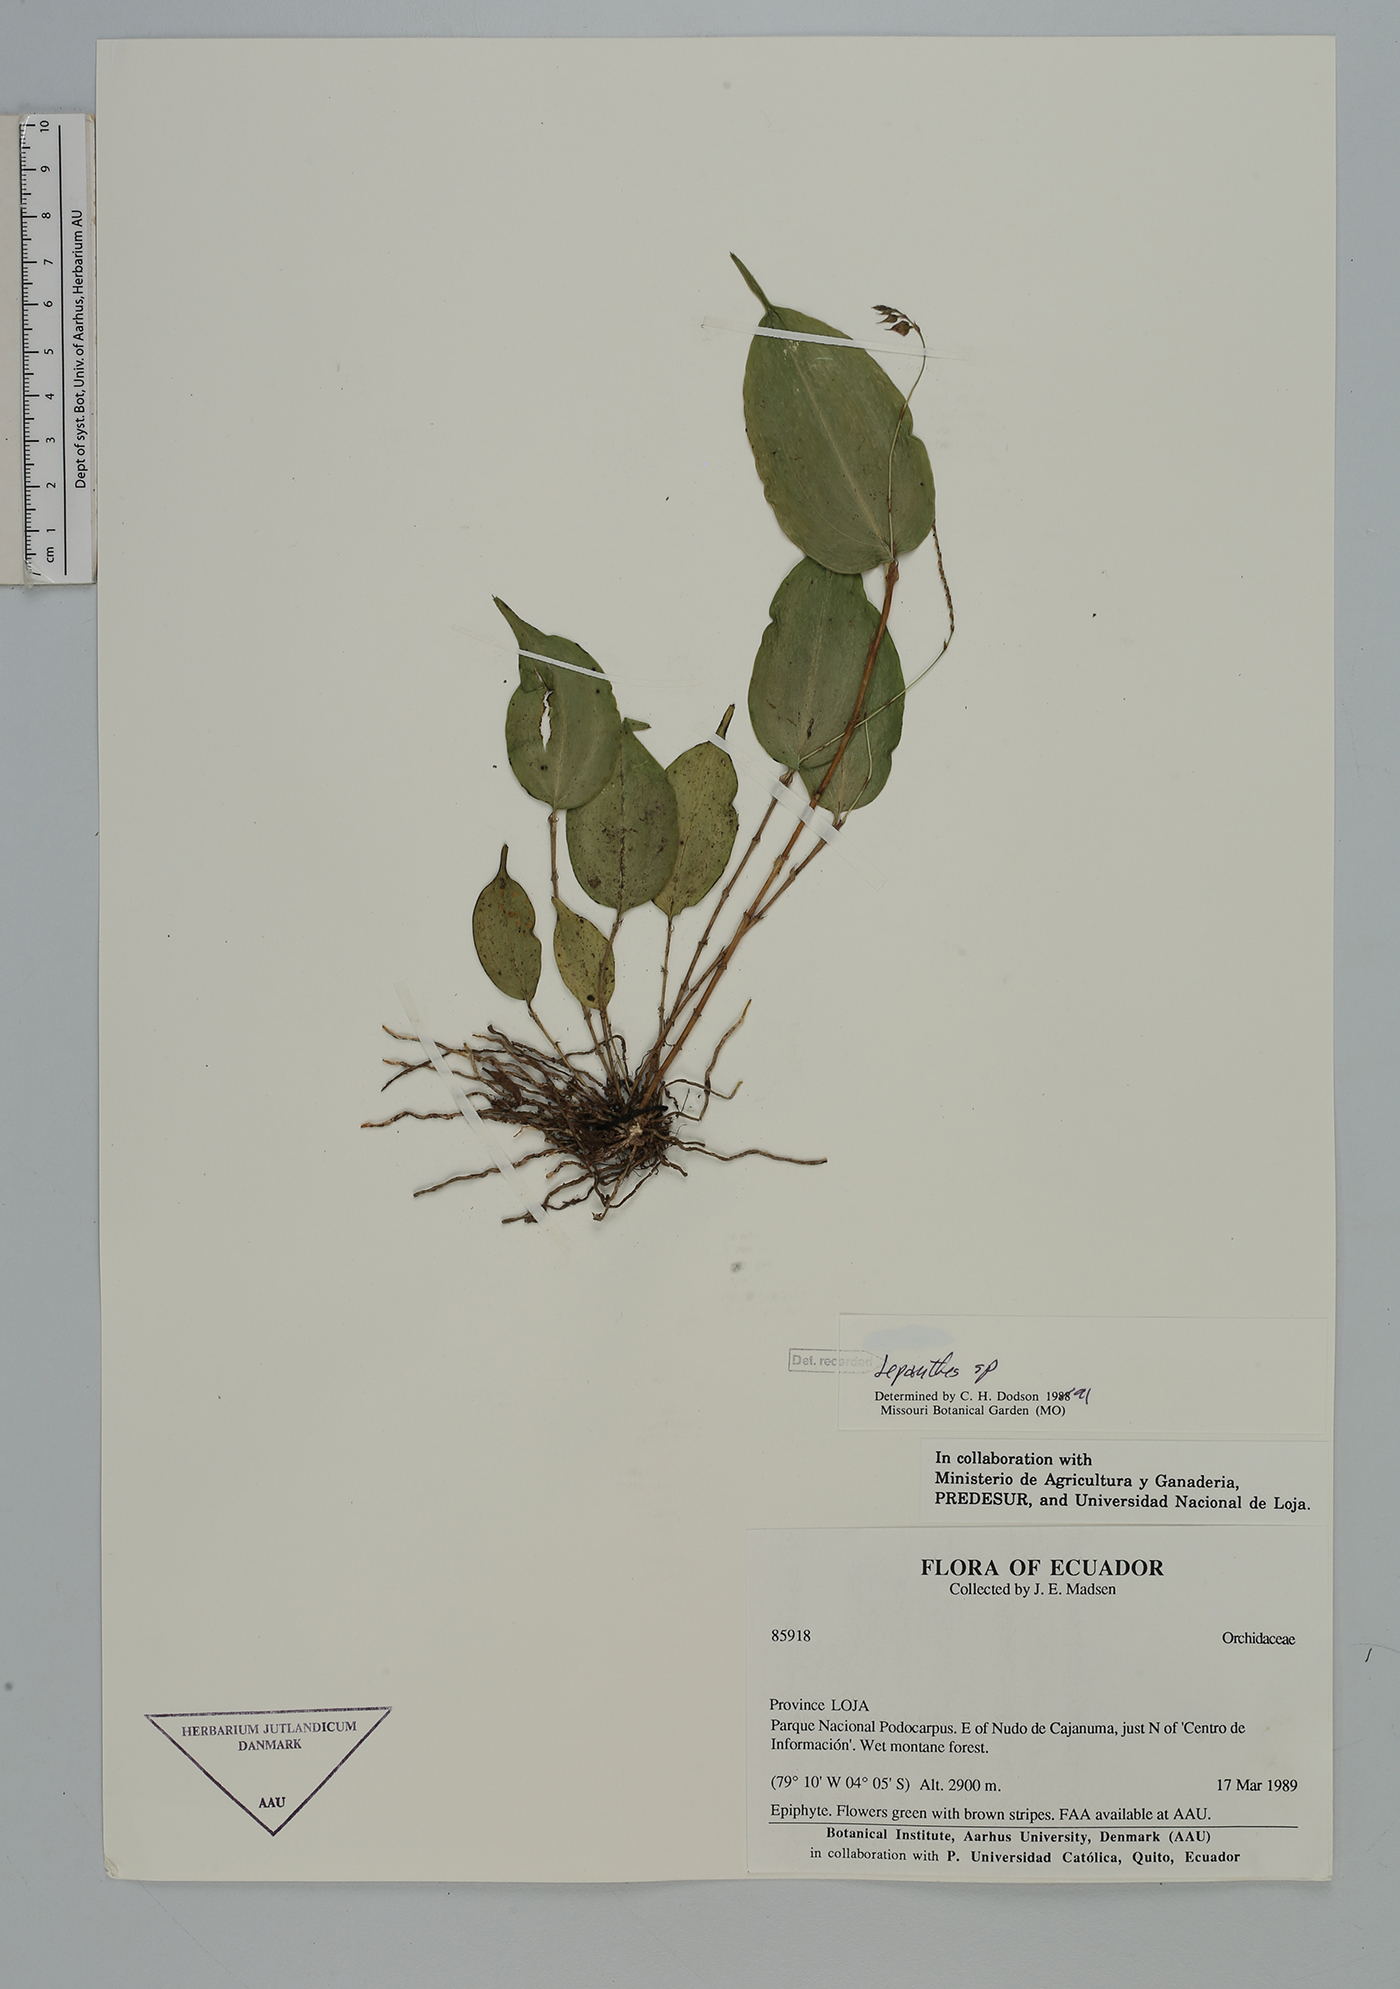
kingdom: Plantae
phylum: Tracheophyta
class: Liliopsida
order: Asparagales
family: Orchidaceae
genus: Lepanthes
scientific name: Lepanthes
